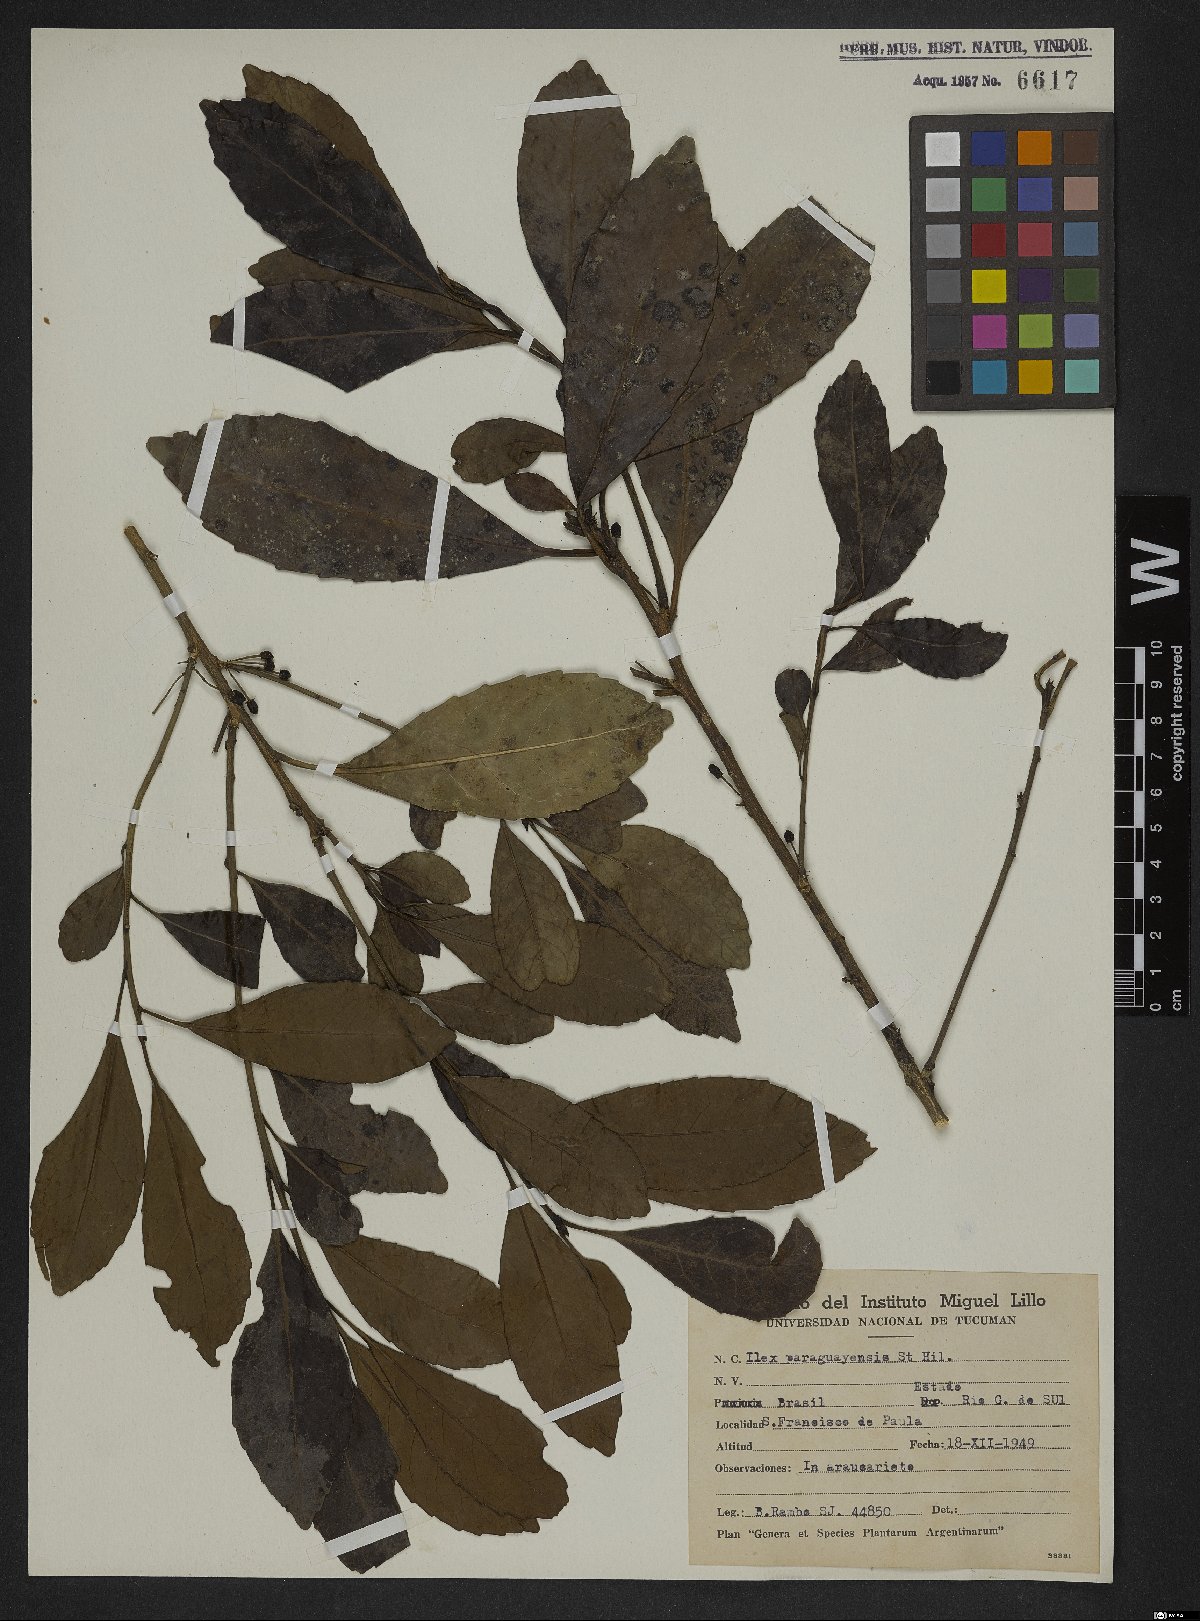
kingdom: Plantae
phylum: Tracheophyta
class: Magnoliopsida
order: Aquifoliales
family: Aquifoliaceae
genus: Ilex
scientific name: Ilex paraguariensis
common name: Paraguay tea
